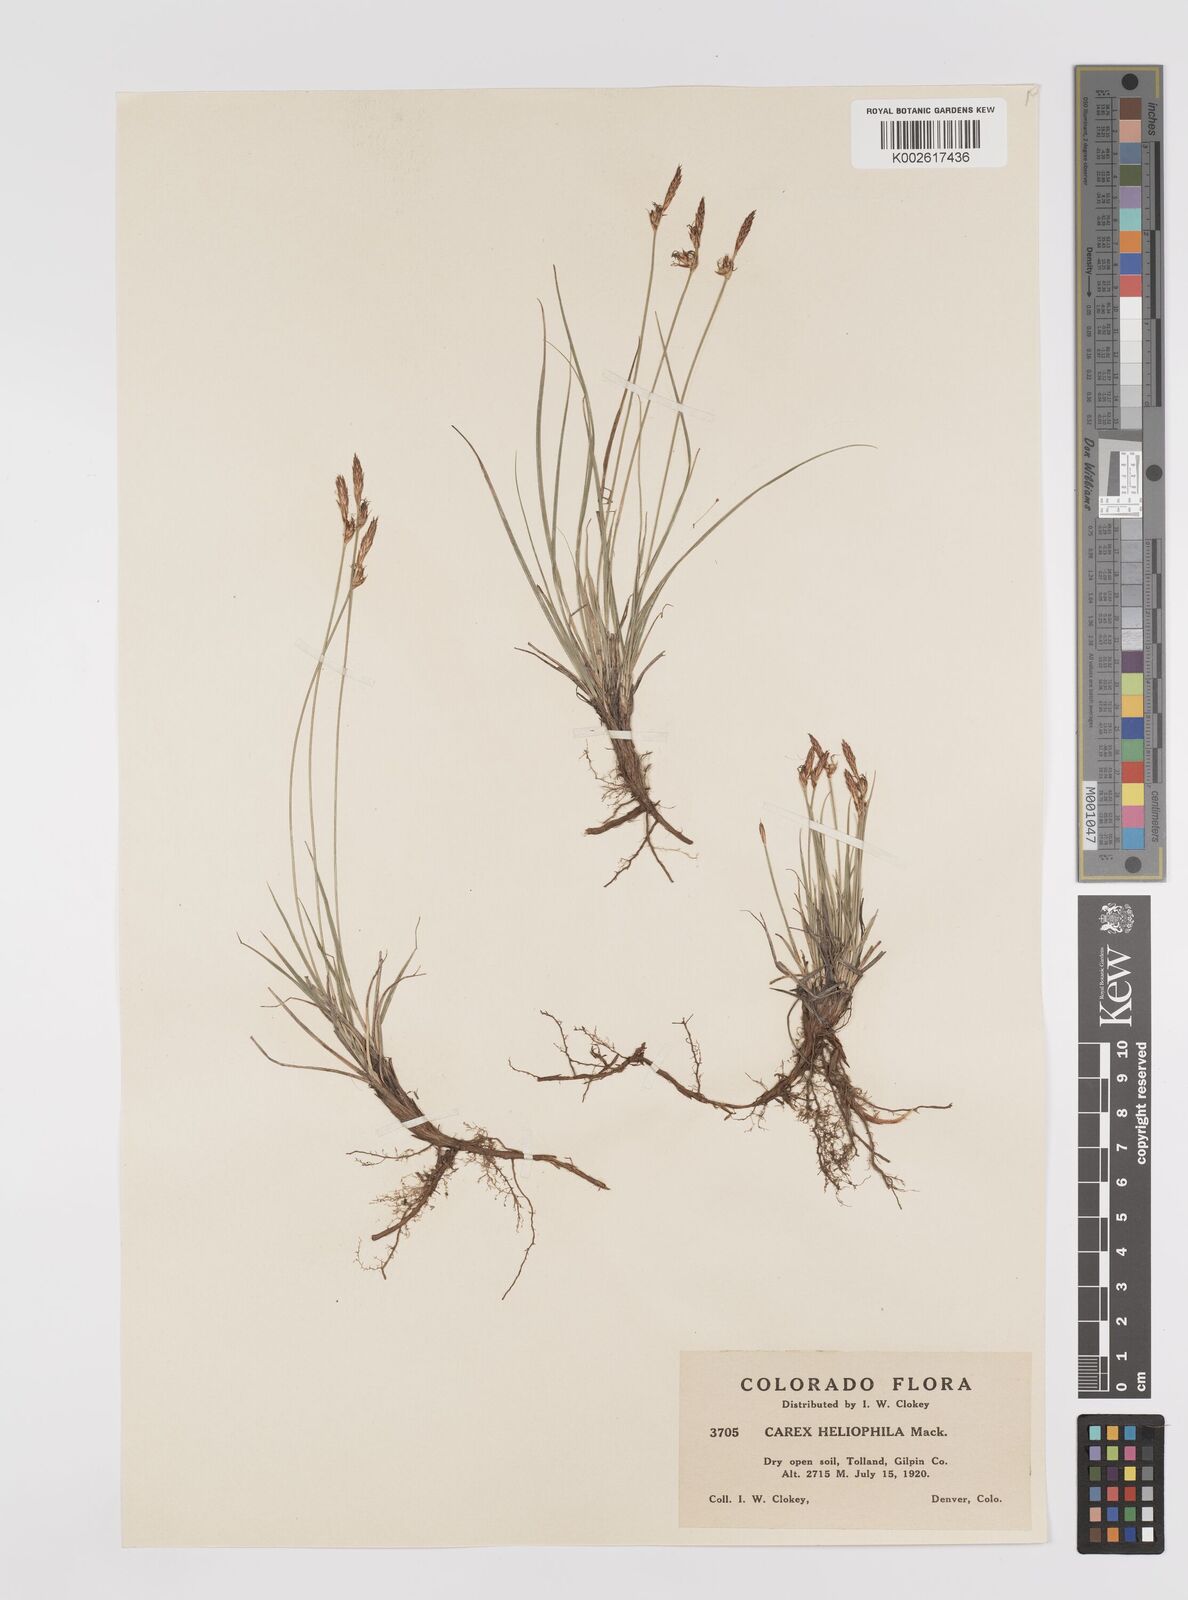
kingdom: Plantae
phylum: Tracheophyta
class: Liliopsida
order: Poales
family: Cyperaceae
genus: Carex
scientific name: Carex inops
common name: Long-stolon sedge
